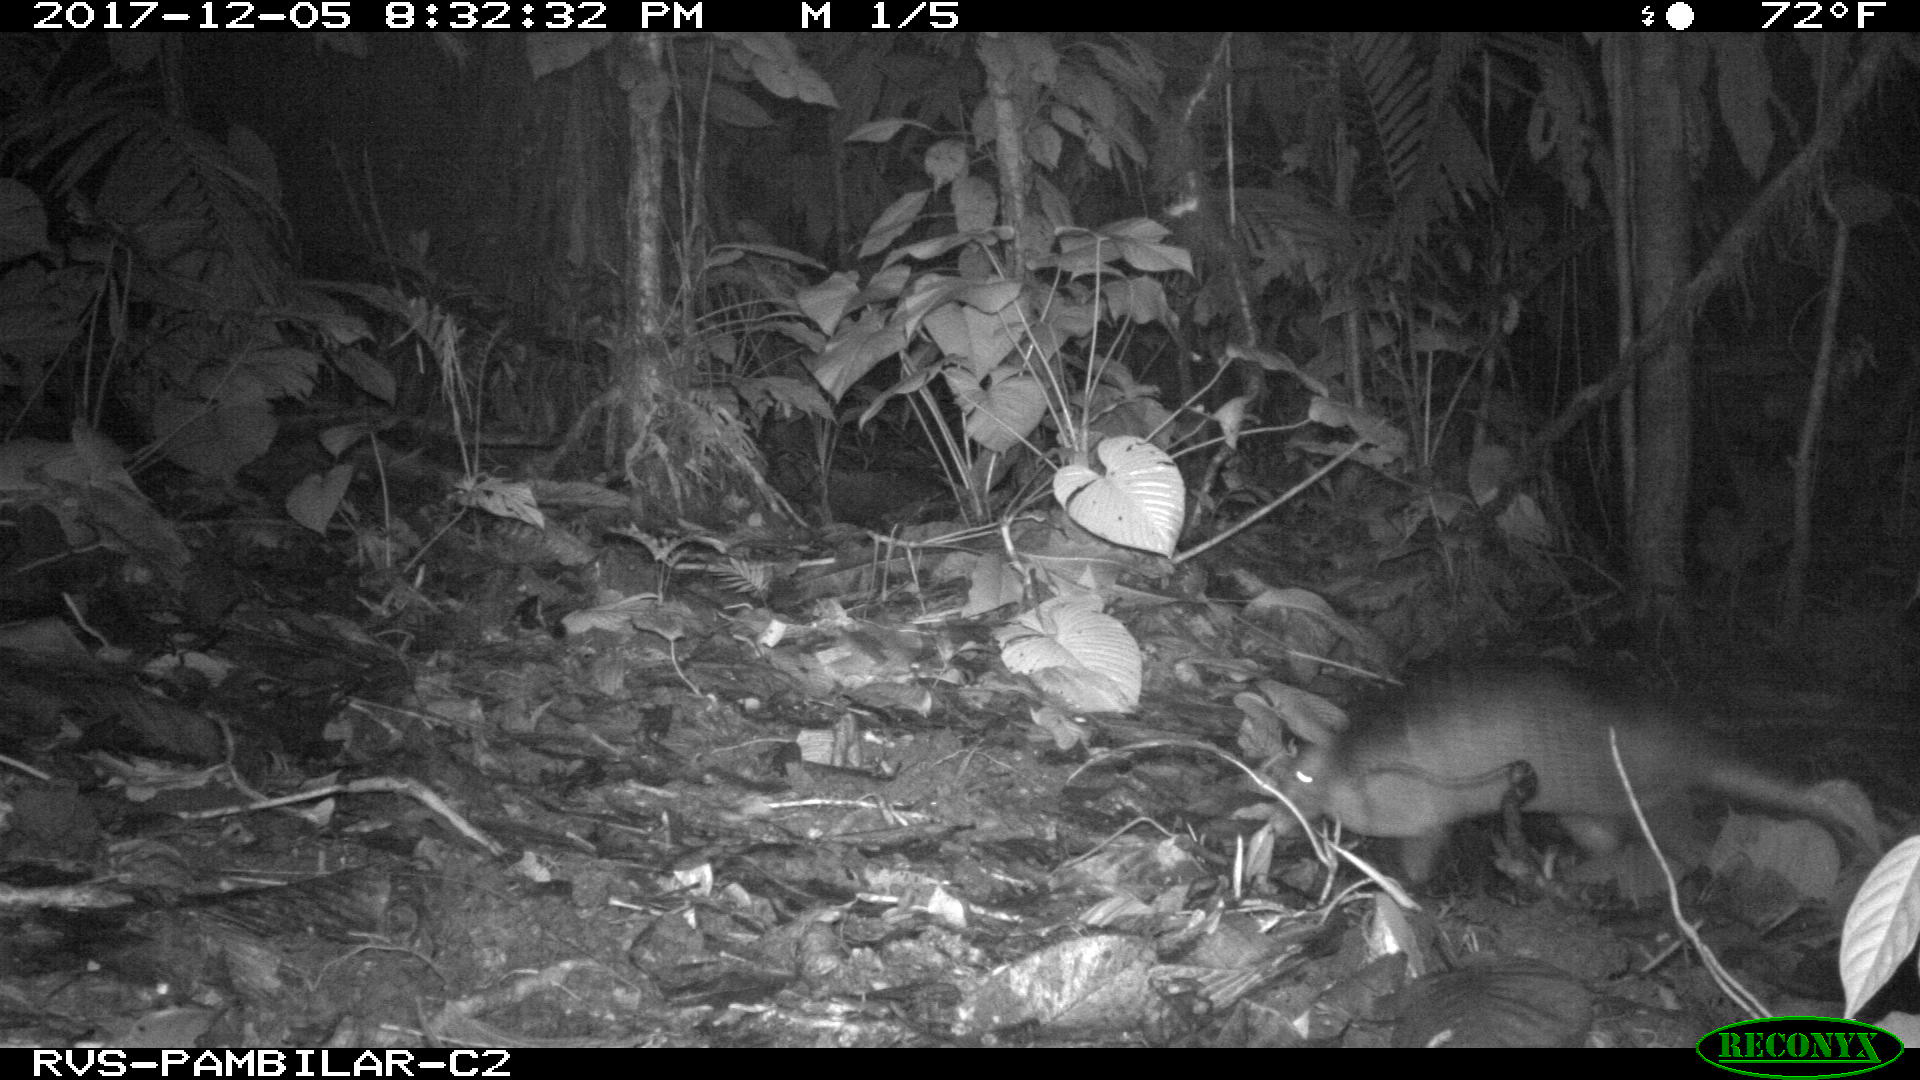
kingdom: Animalia
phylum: Chordata
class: Mammalia
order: Cingulata
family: Dasypodidae
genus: Dasypus
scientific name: Dasypus novemcinctus
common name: Nine-banded armadillo
